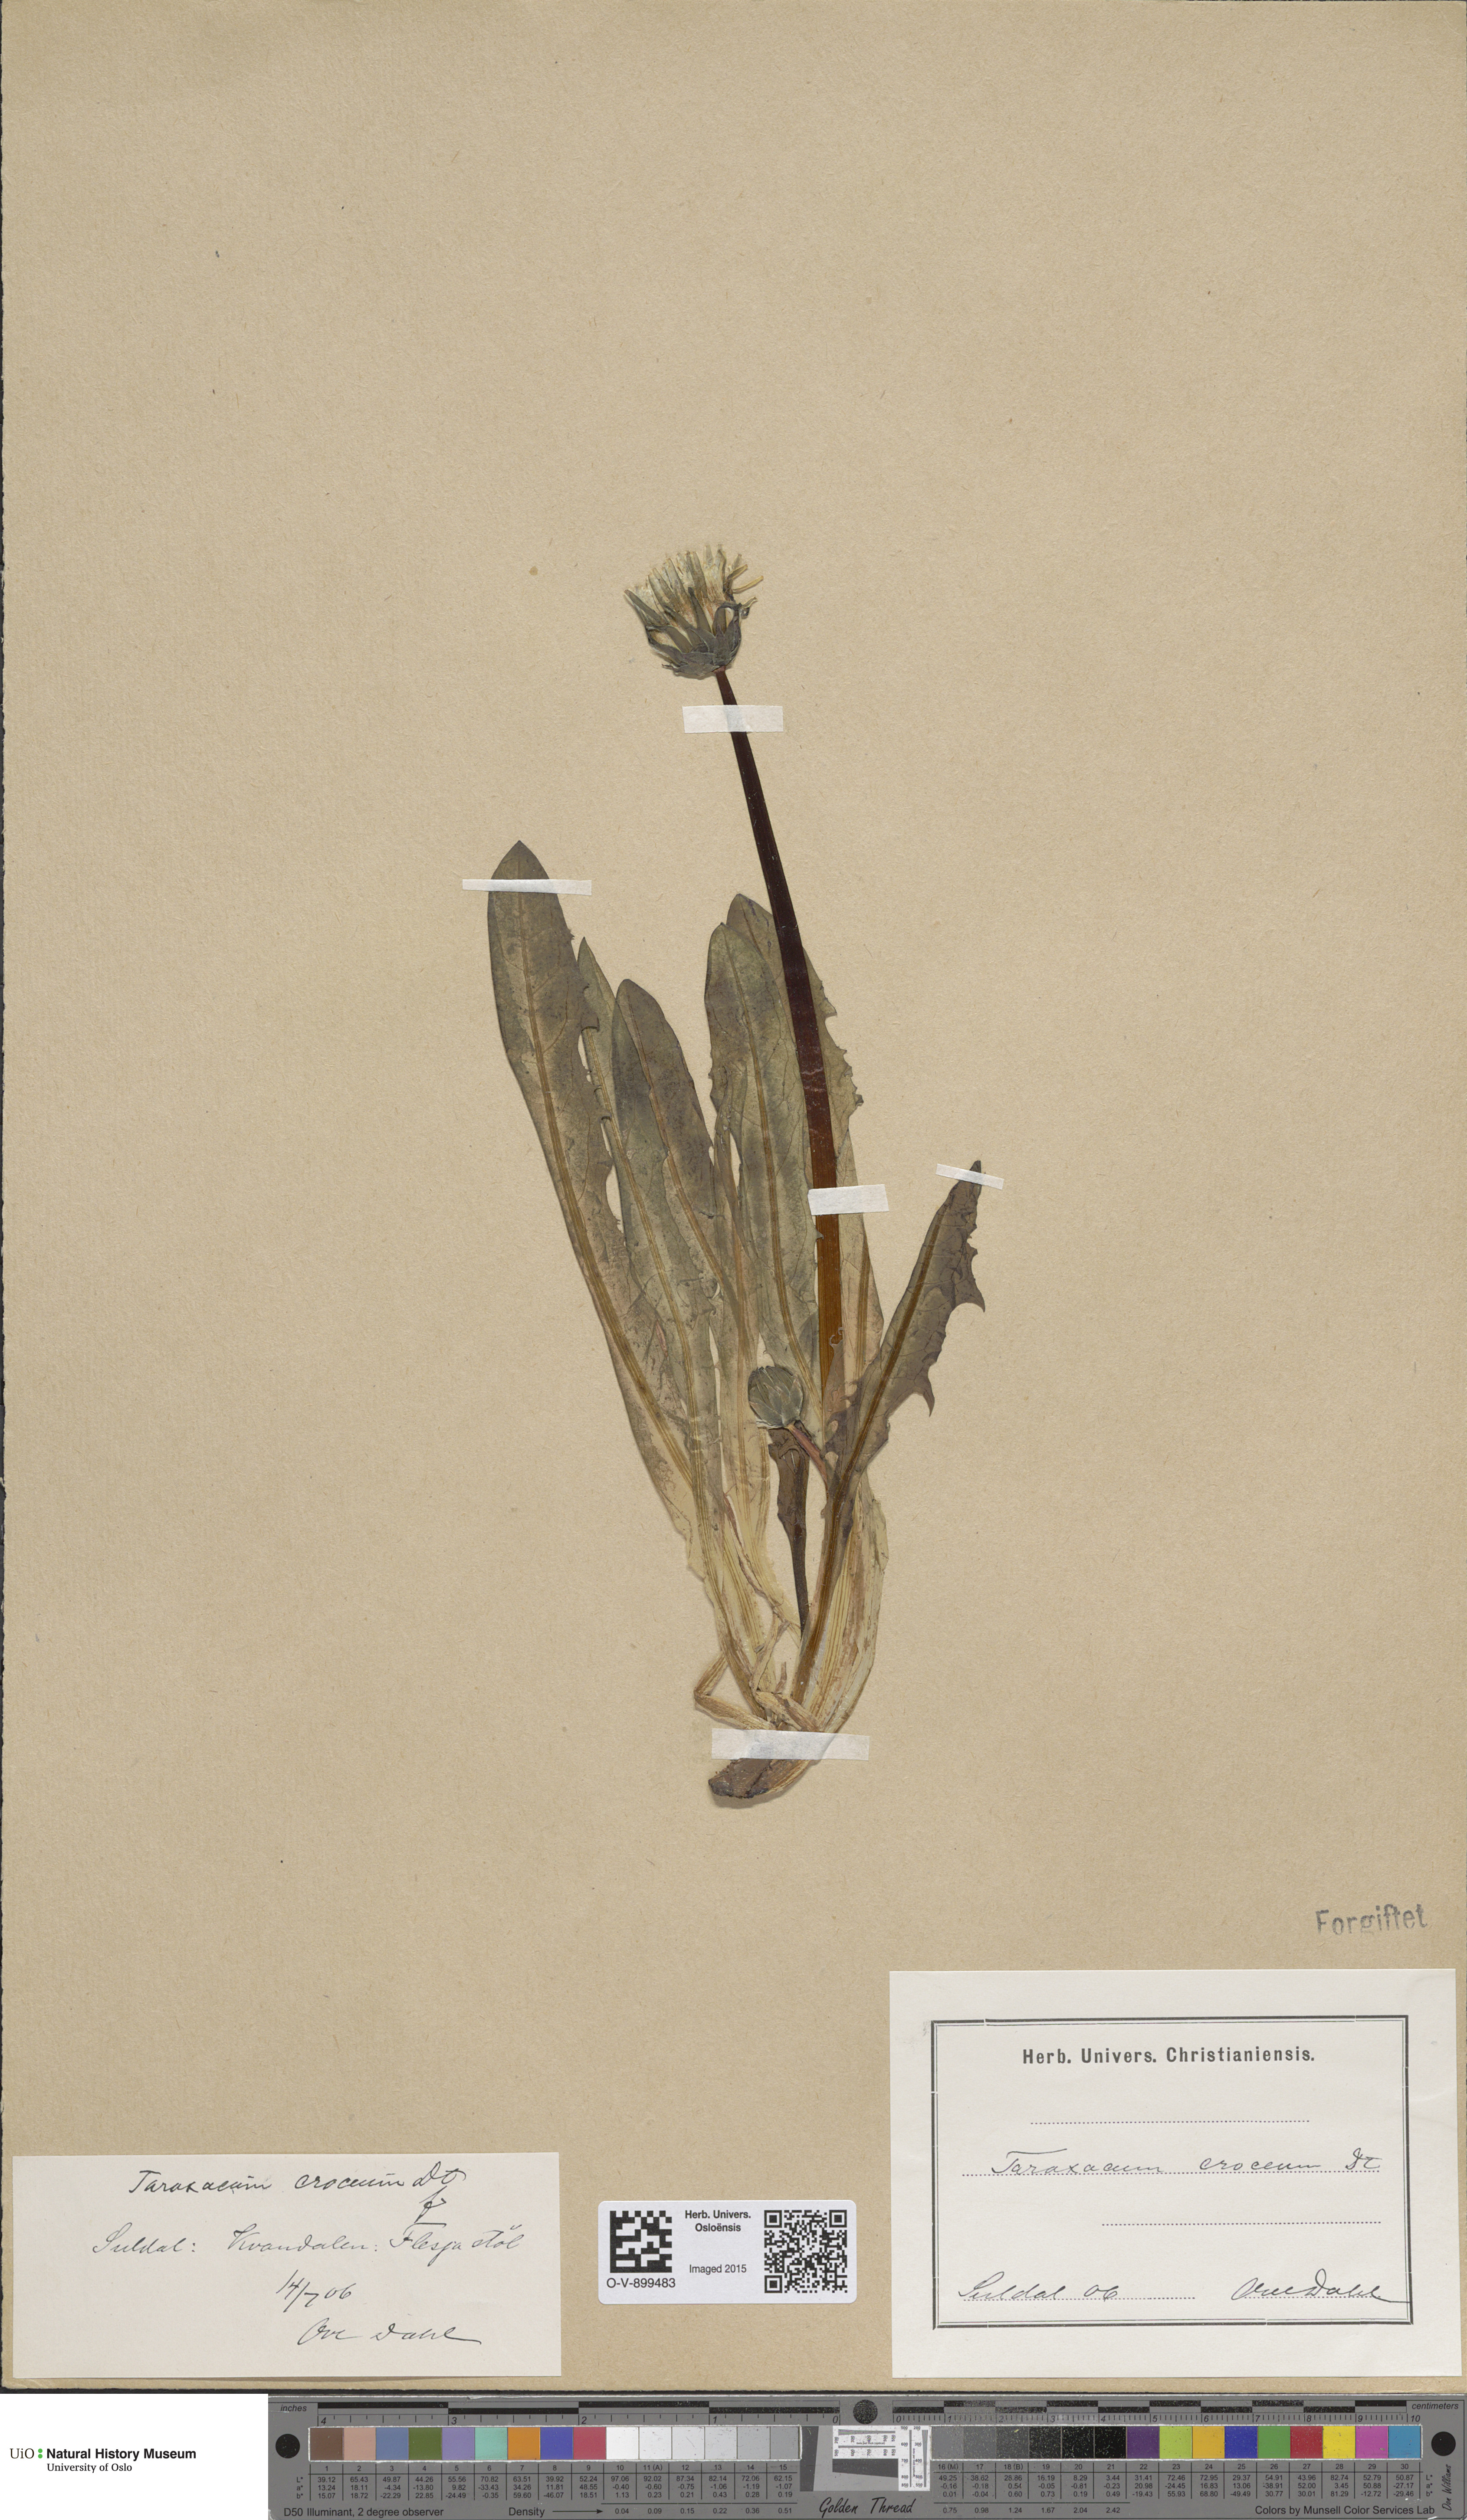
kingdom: Plantae
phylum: Tracheophyta
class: Magnoliopsida
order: Asterales
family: Asteraceae
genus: Taraxacum
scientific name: Taraxacum croceum
